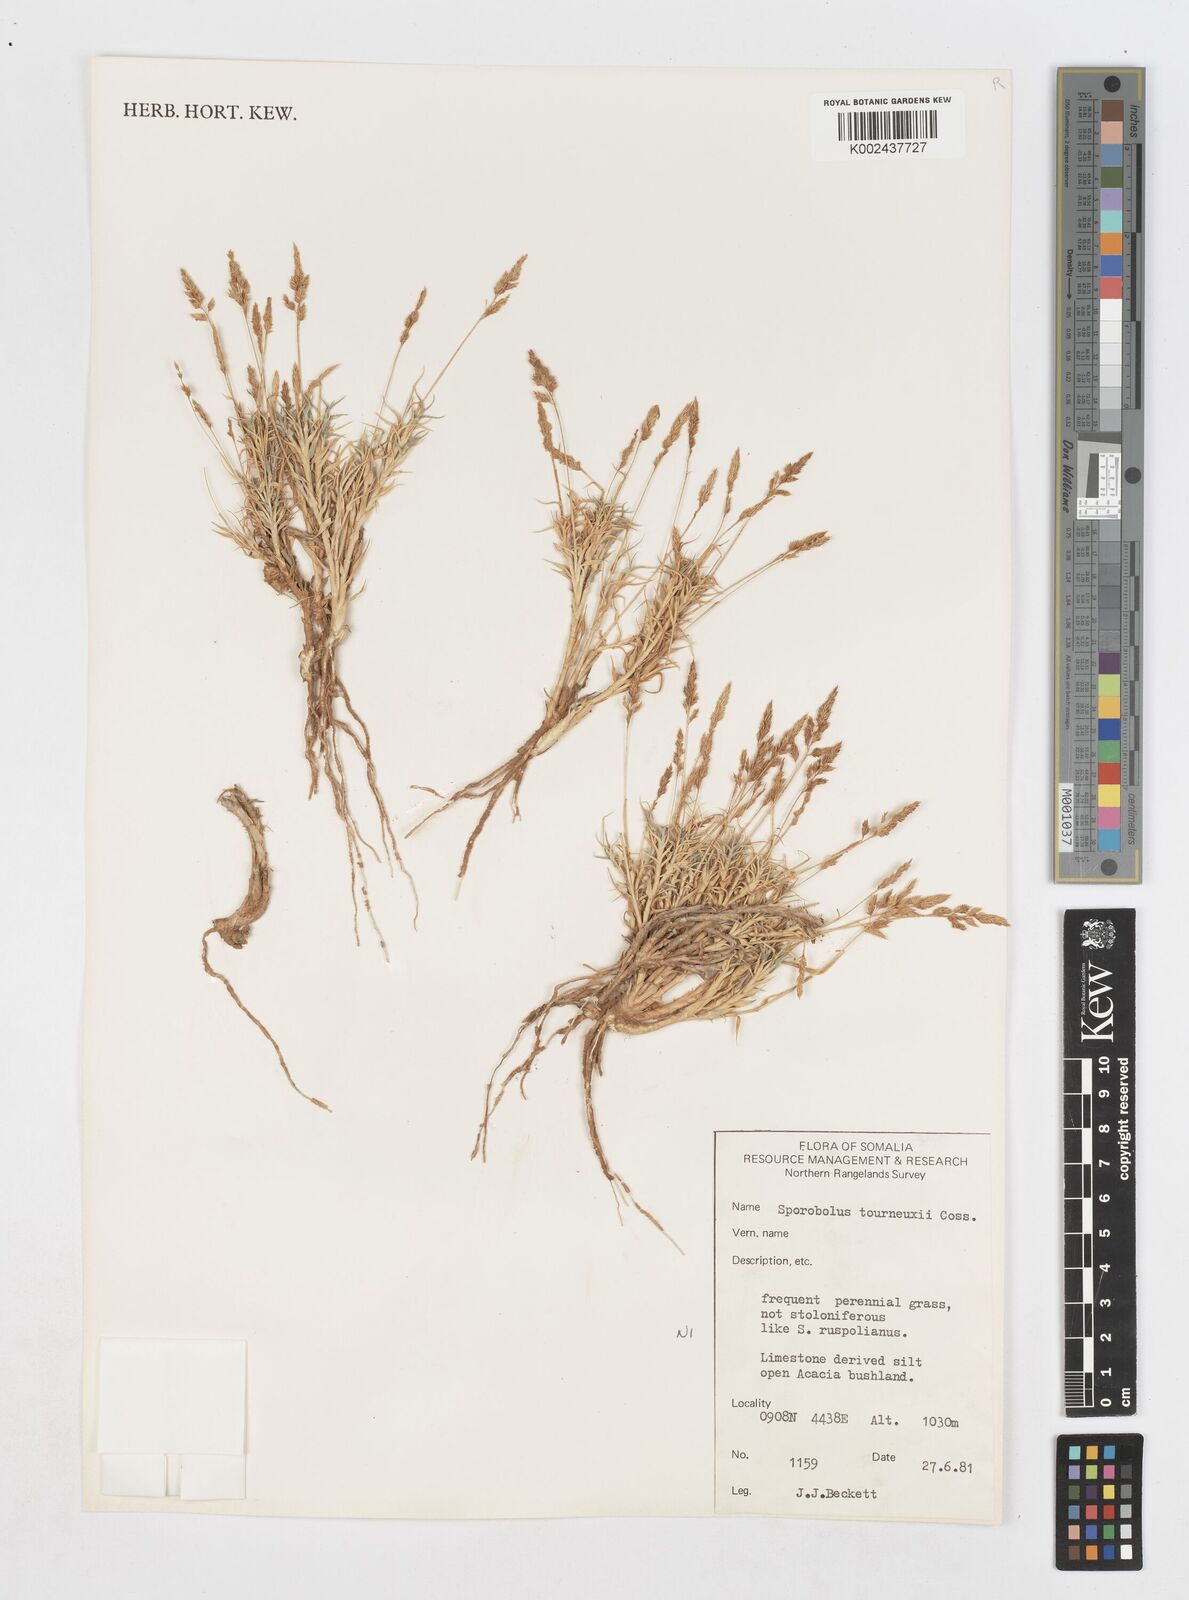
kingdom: Plantae
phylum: Tracheophyta
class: Liliopsida
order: Poales
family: Poaceae
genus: Sporobolus
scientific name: Sporobolus tourneuxii
